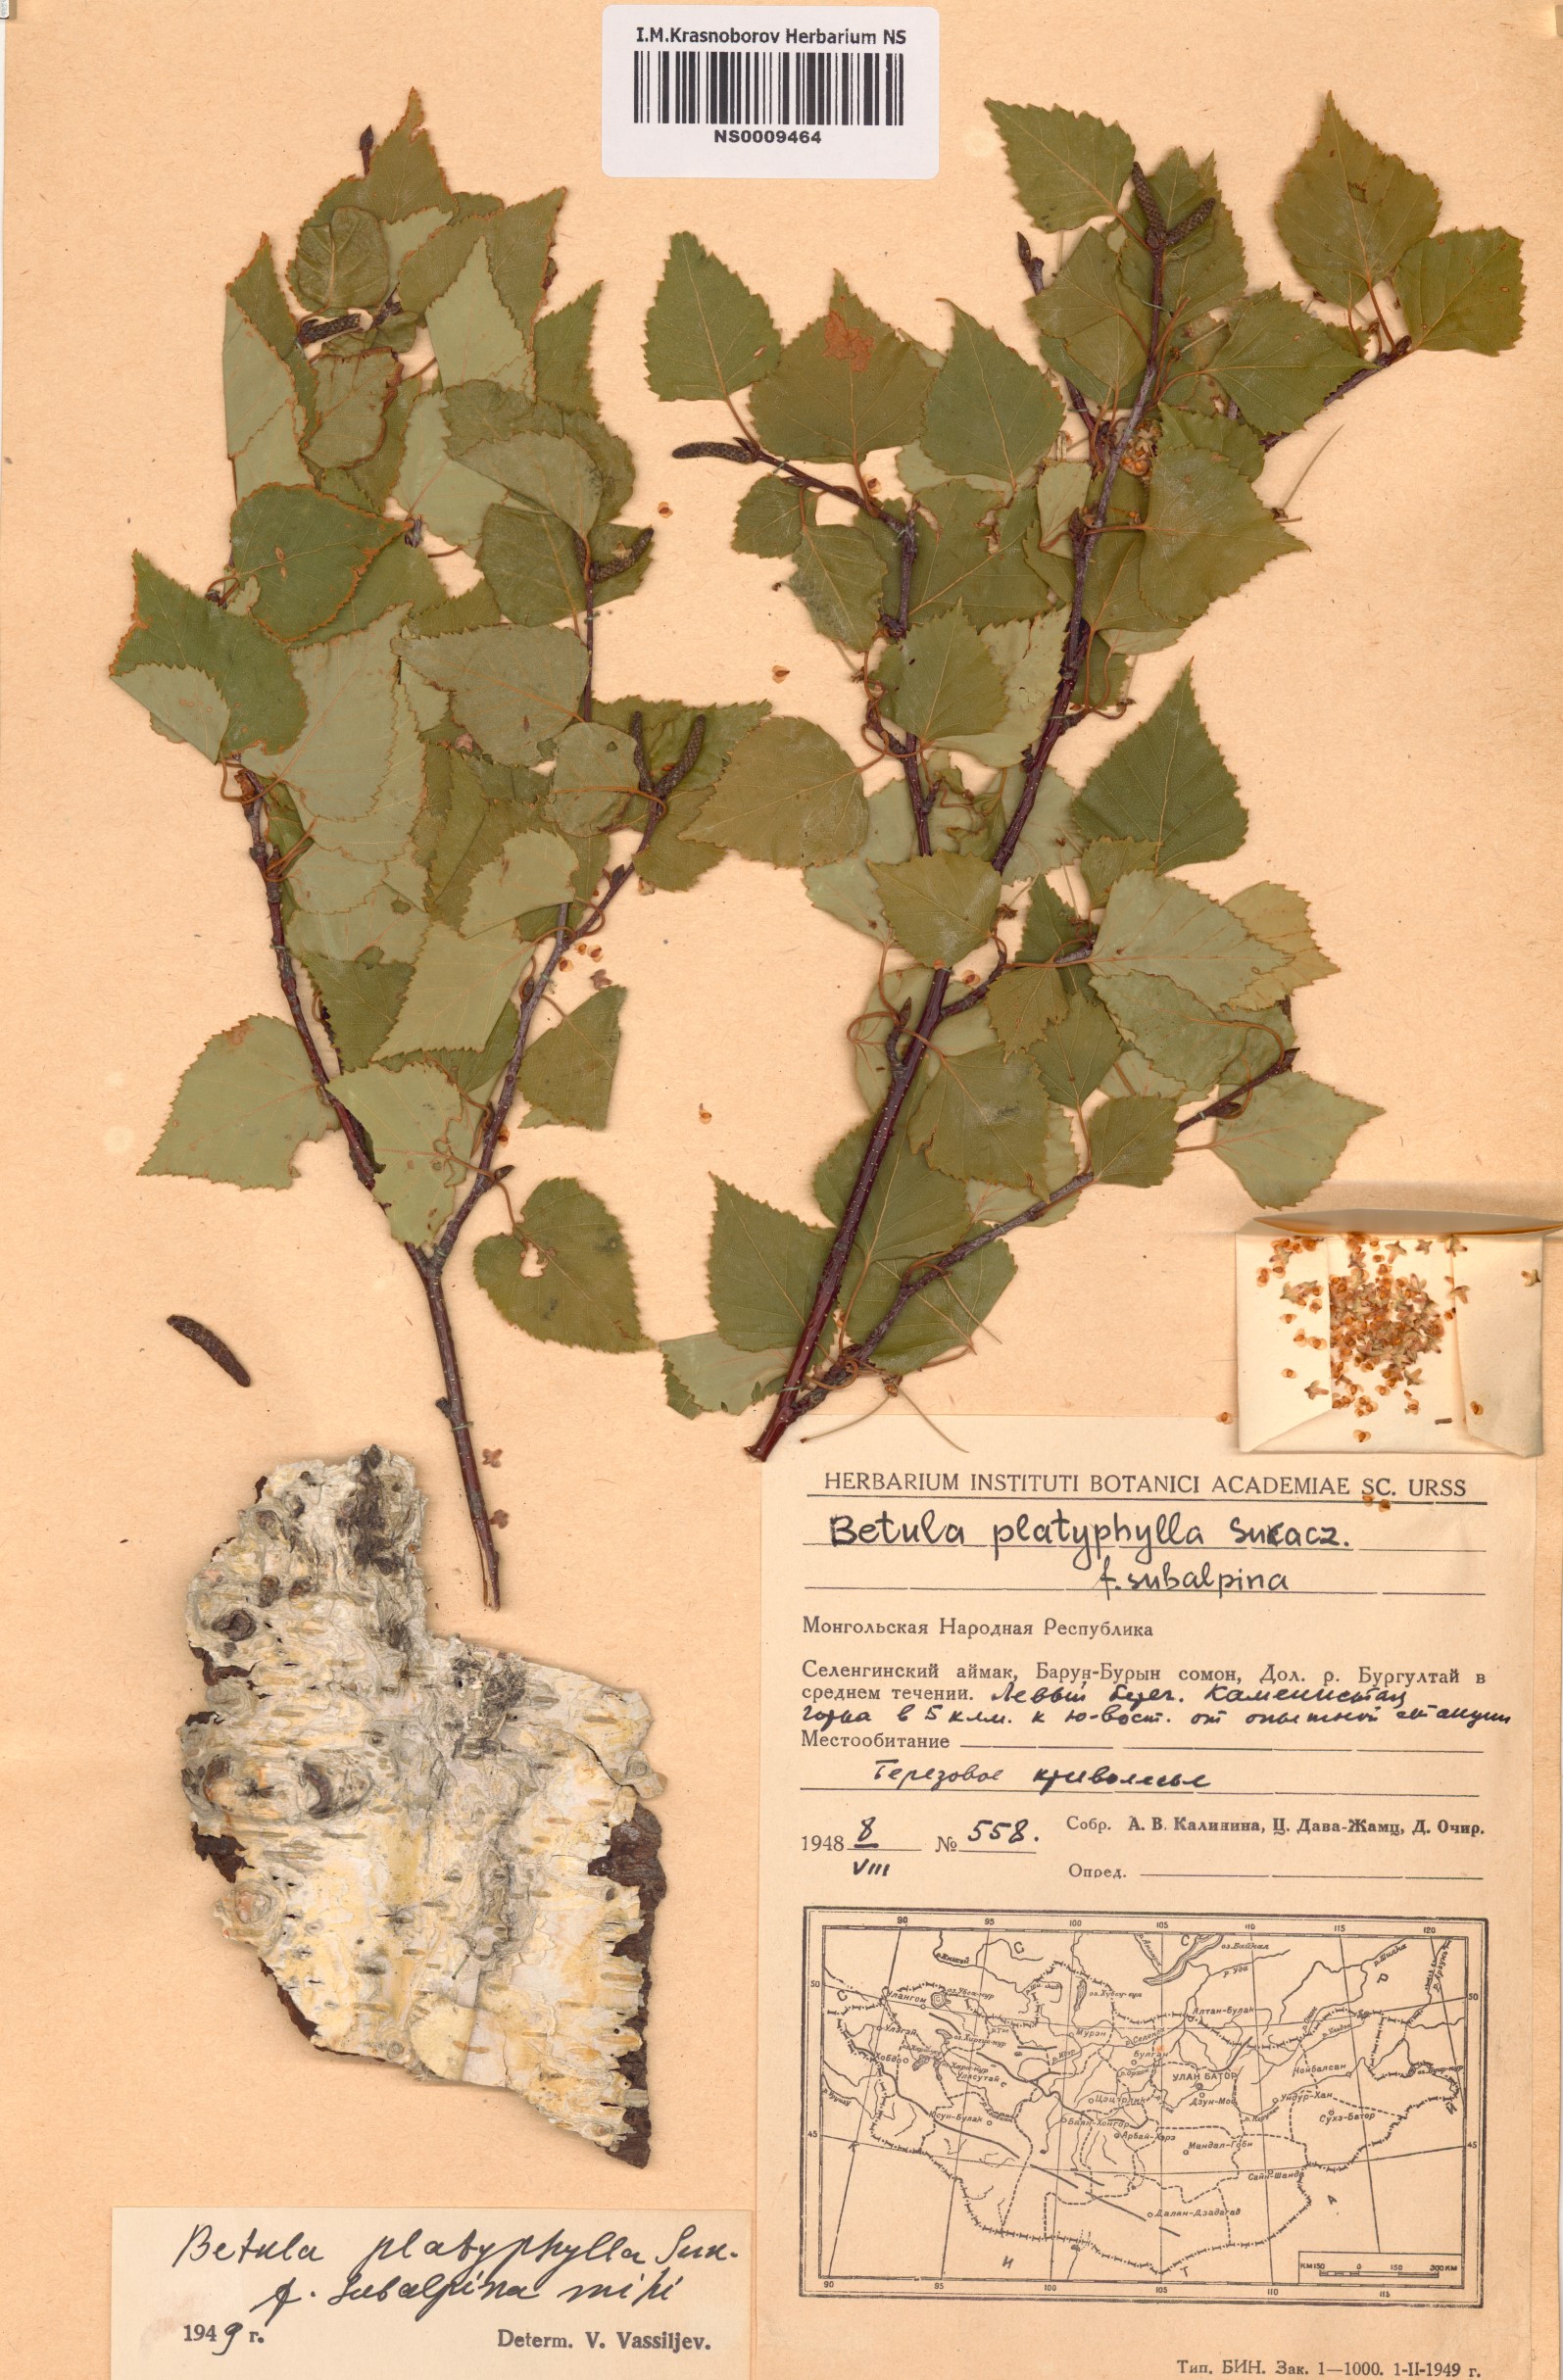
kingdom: Plantae
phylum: Tracheophyta
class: Magnoliopsida
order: Fagales
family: Betulaceae
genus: Betula
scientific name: Betula pendula
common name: Silver birch
